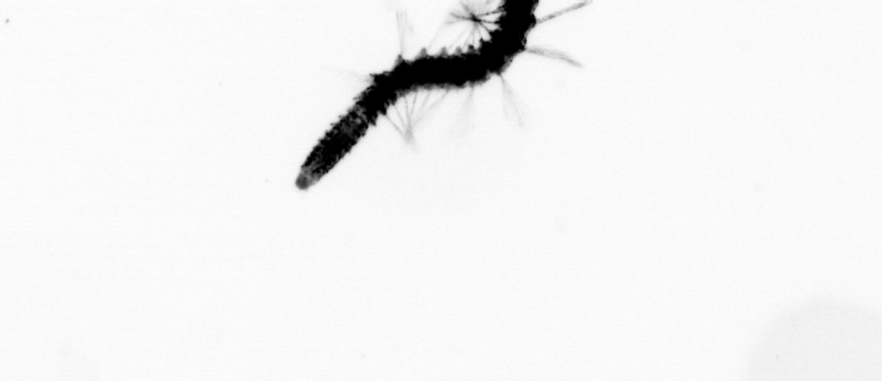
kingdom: Animalia
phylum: Annelida
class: Polychaeta
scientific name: Polychaeta
